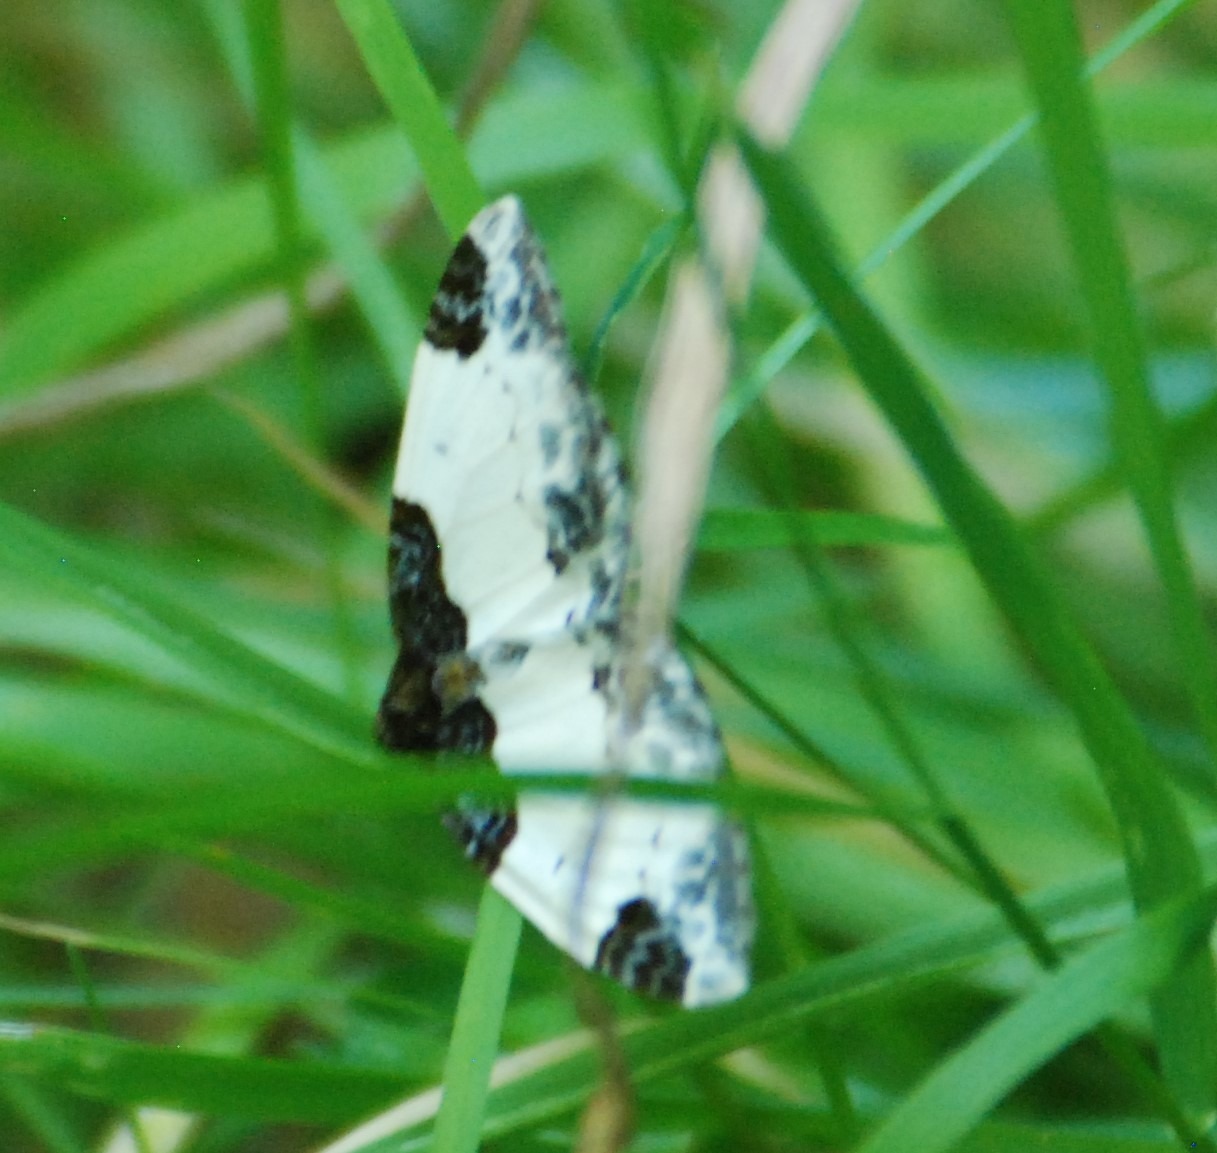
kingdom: Animalia
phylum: Arthropoda
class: Insecta
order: Lepidoptera
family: Geometridae
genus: Mesoleuca
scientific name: Mesoleuca albicillata
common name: Hindbær-bladmåler
